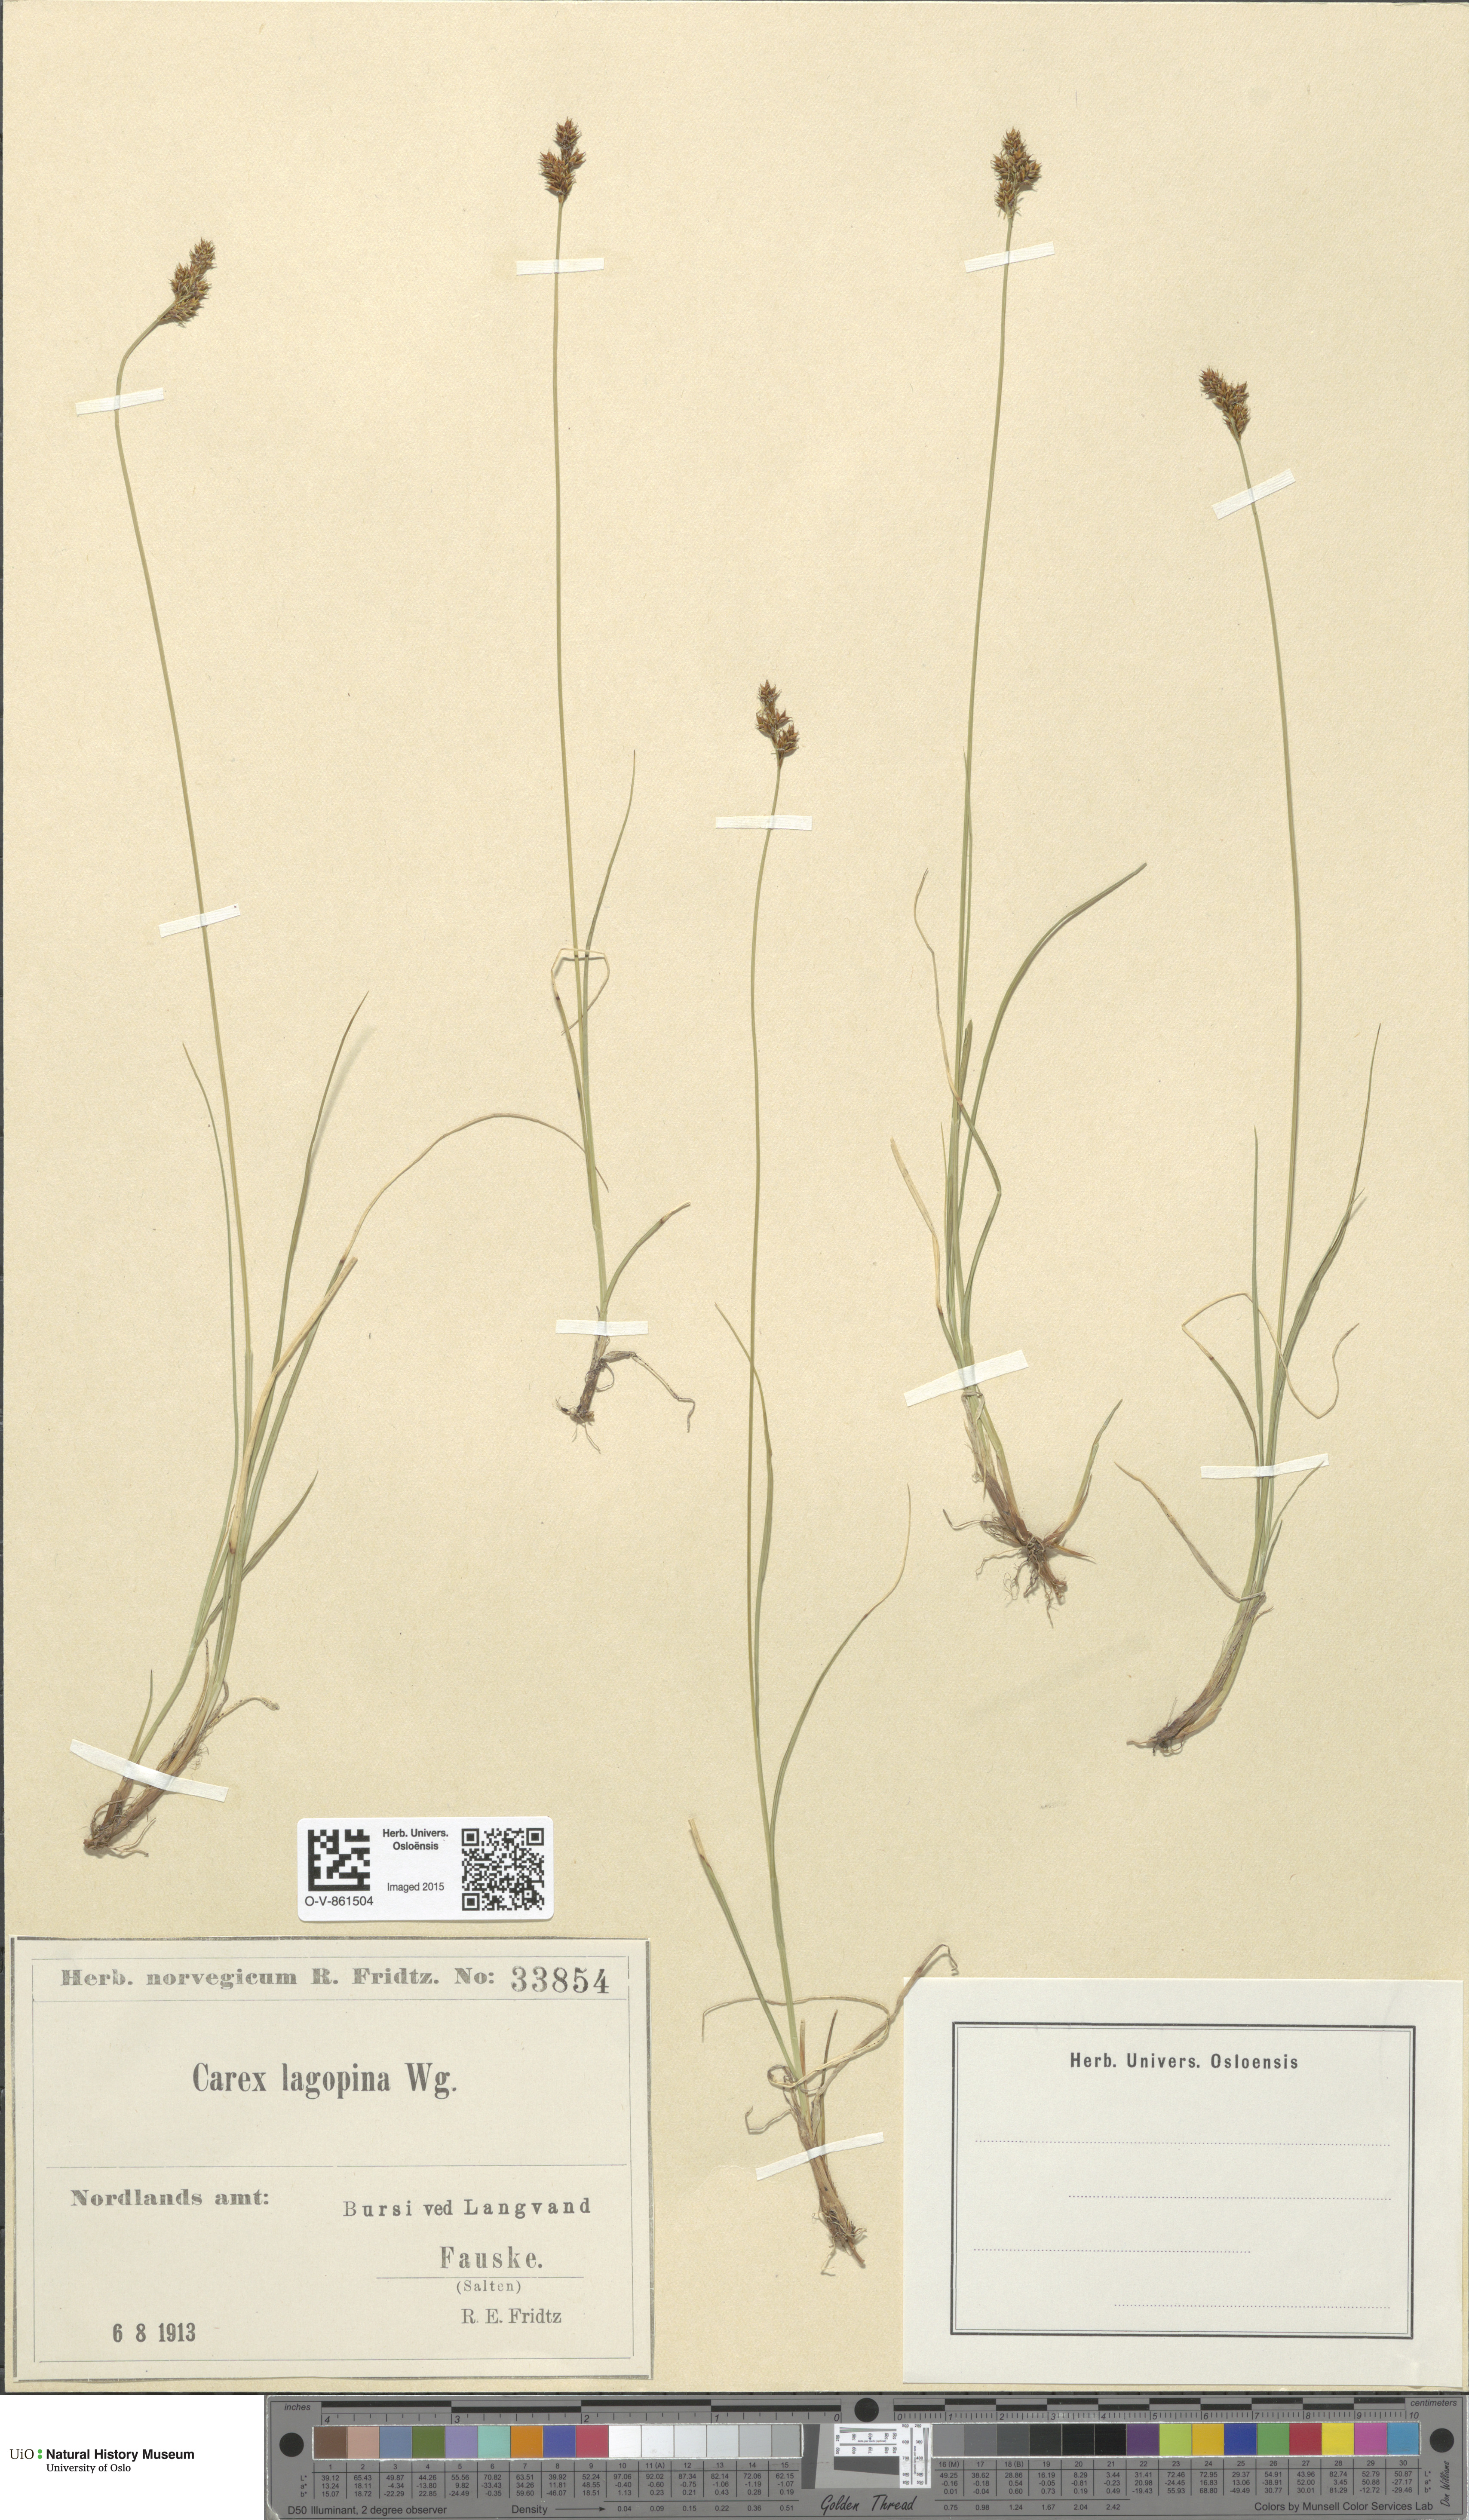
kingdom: Plantae
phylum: Tracheophyta
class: Liliopsida
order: Poales
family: Cyperaceae
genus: Carex
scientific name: Carex lachenalii
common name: Hare's-foot sedge
